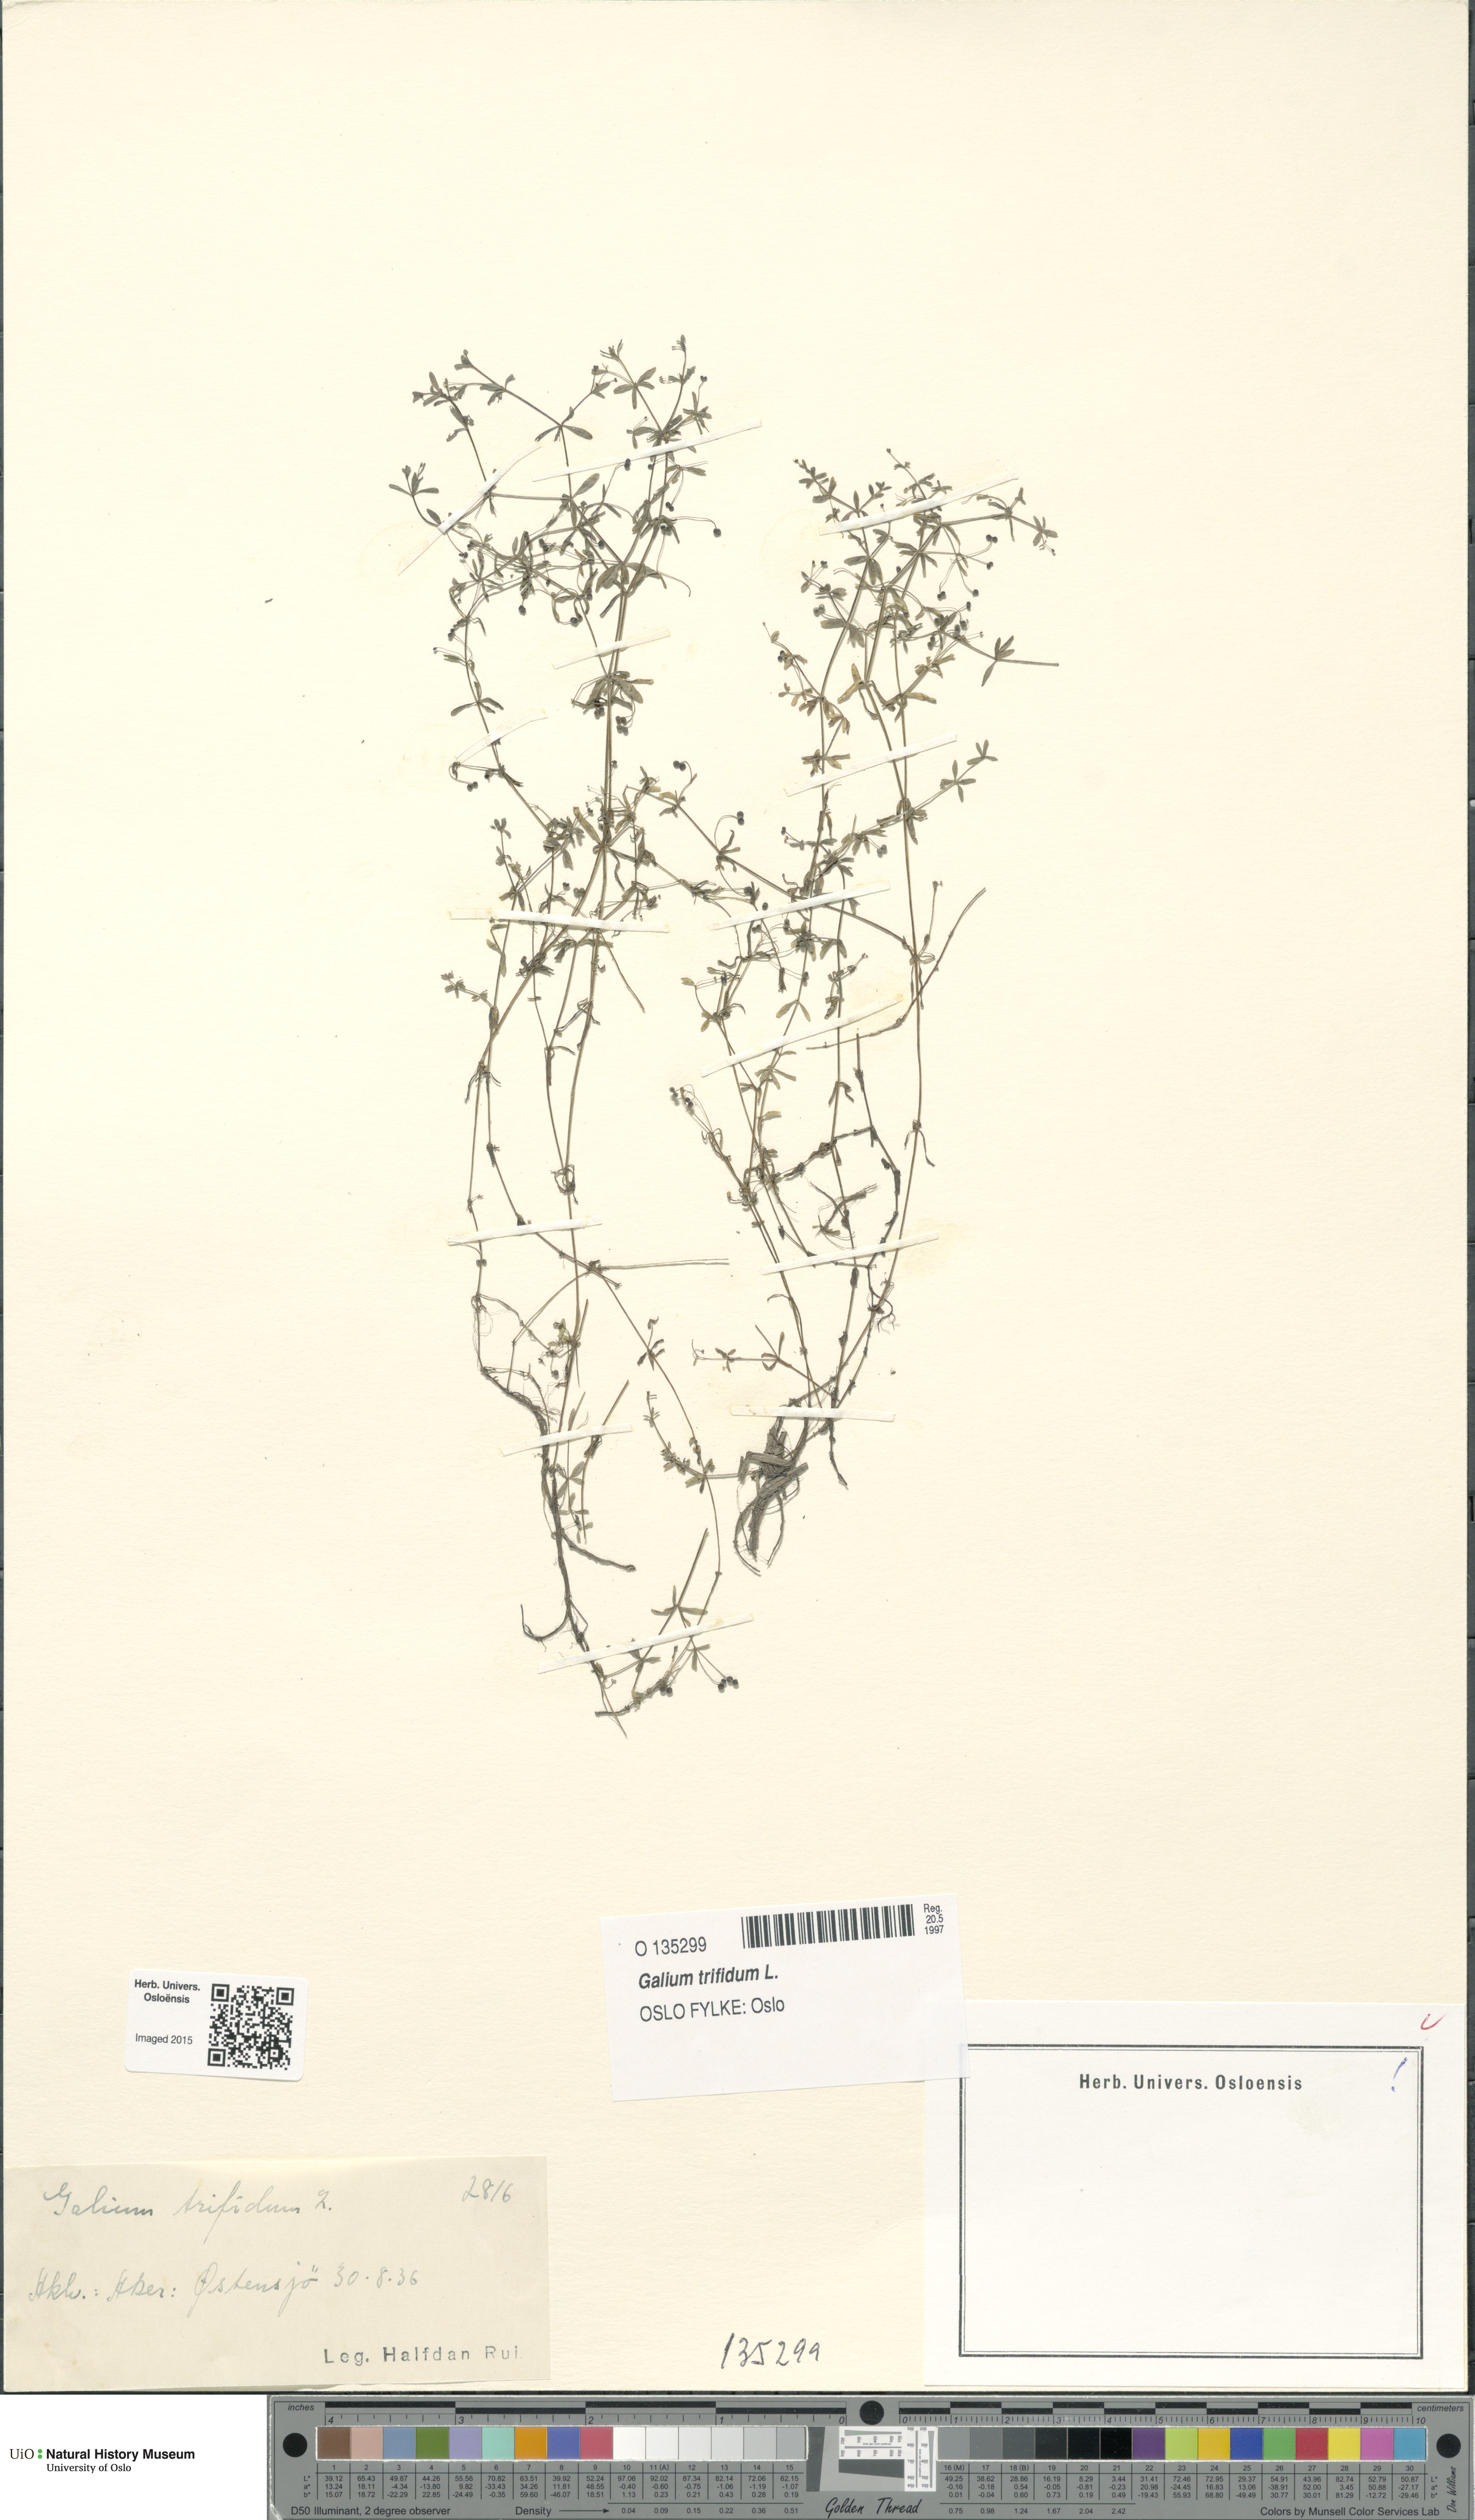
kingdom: Plantae
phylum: Tracheophyta
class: Magnoliopsida
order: Gentianales
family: Rubiaceae
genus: Galium
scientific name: Galium trifidum
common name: Small bedstraw
